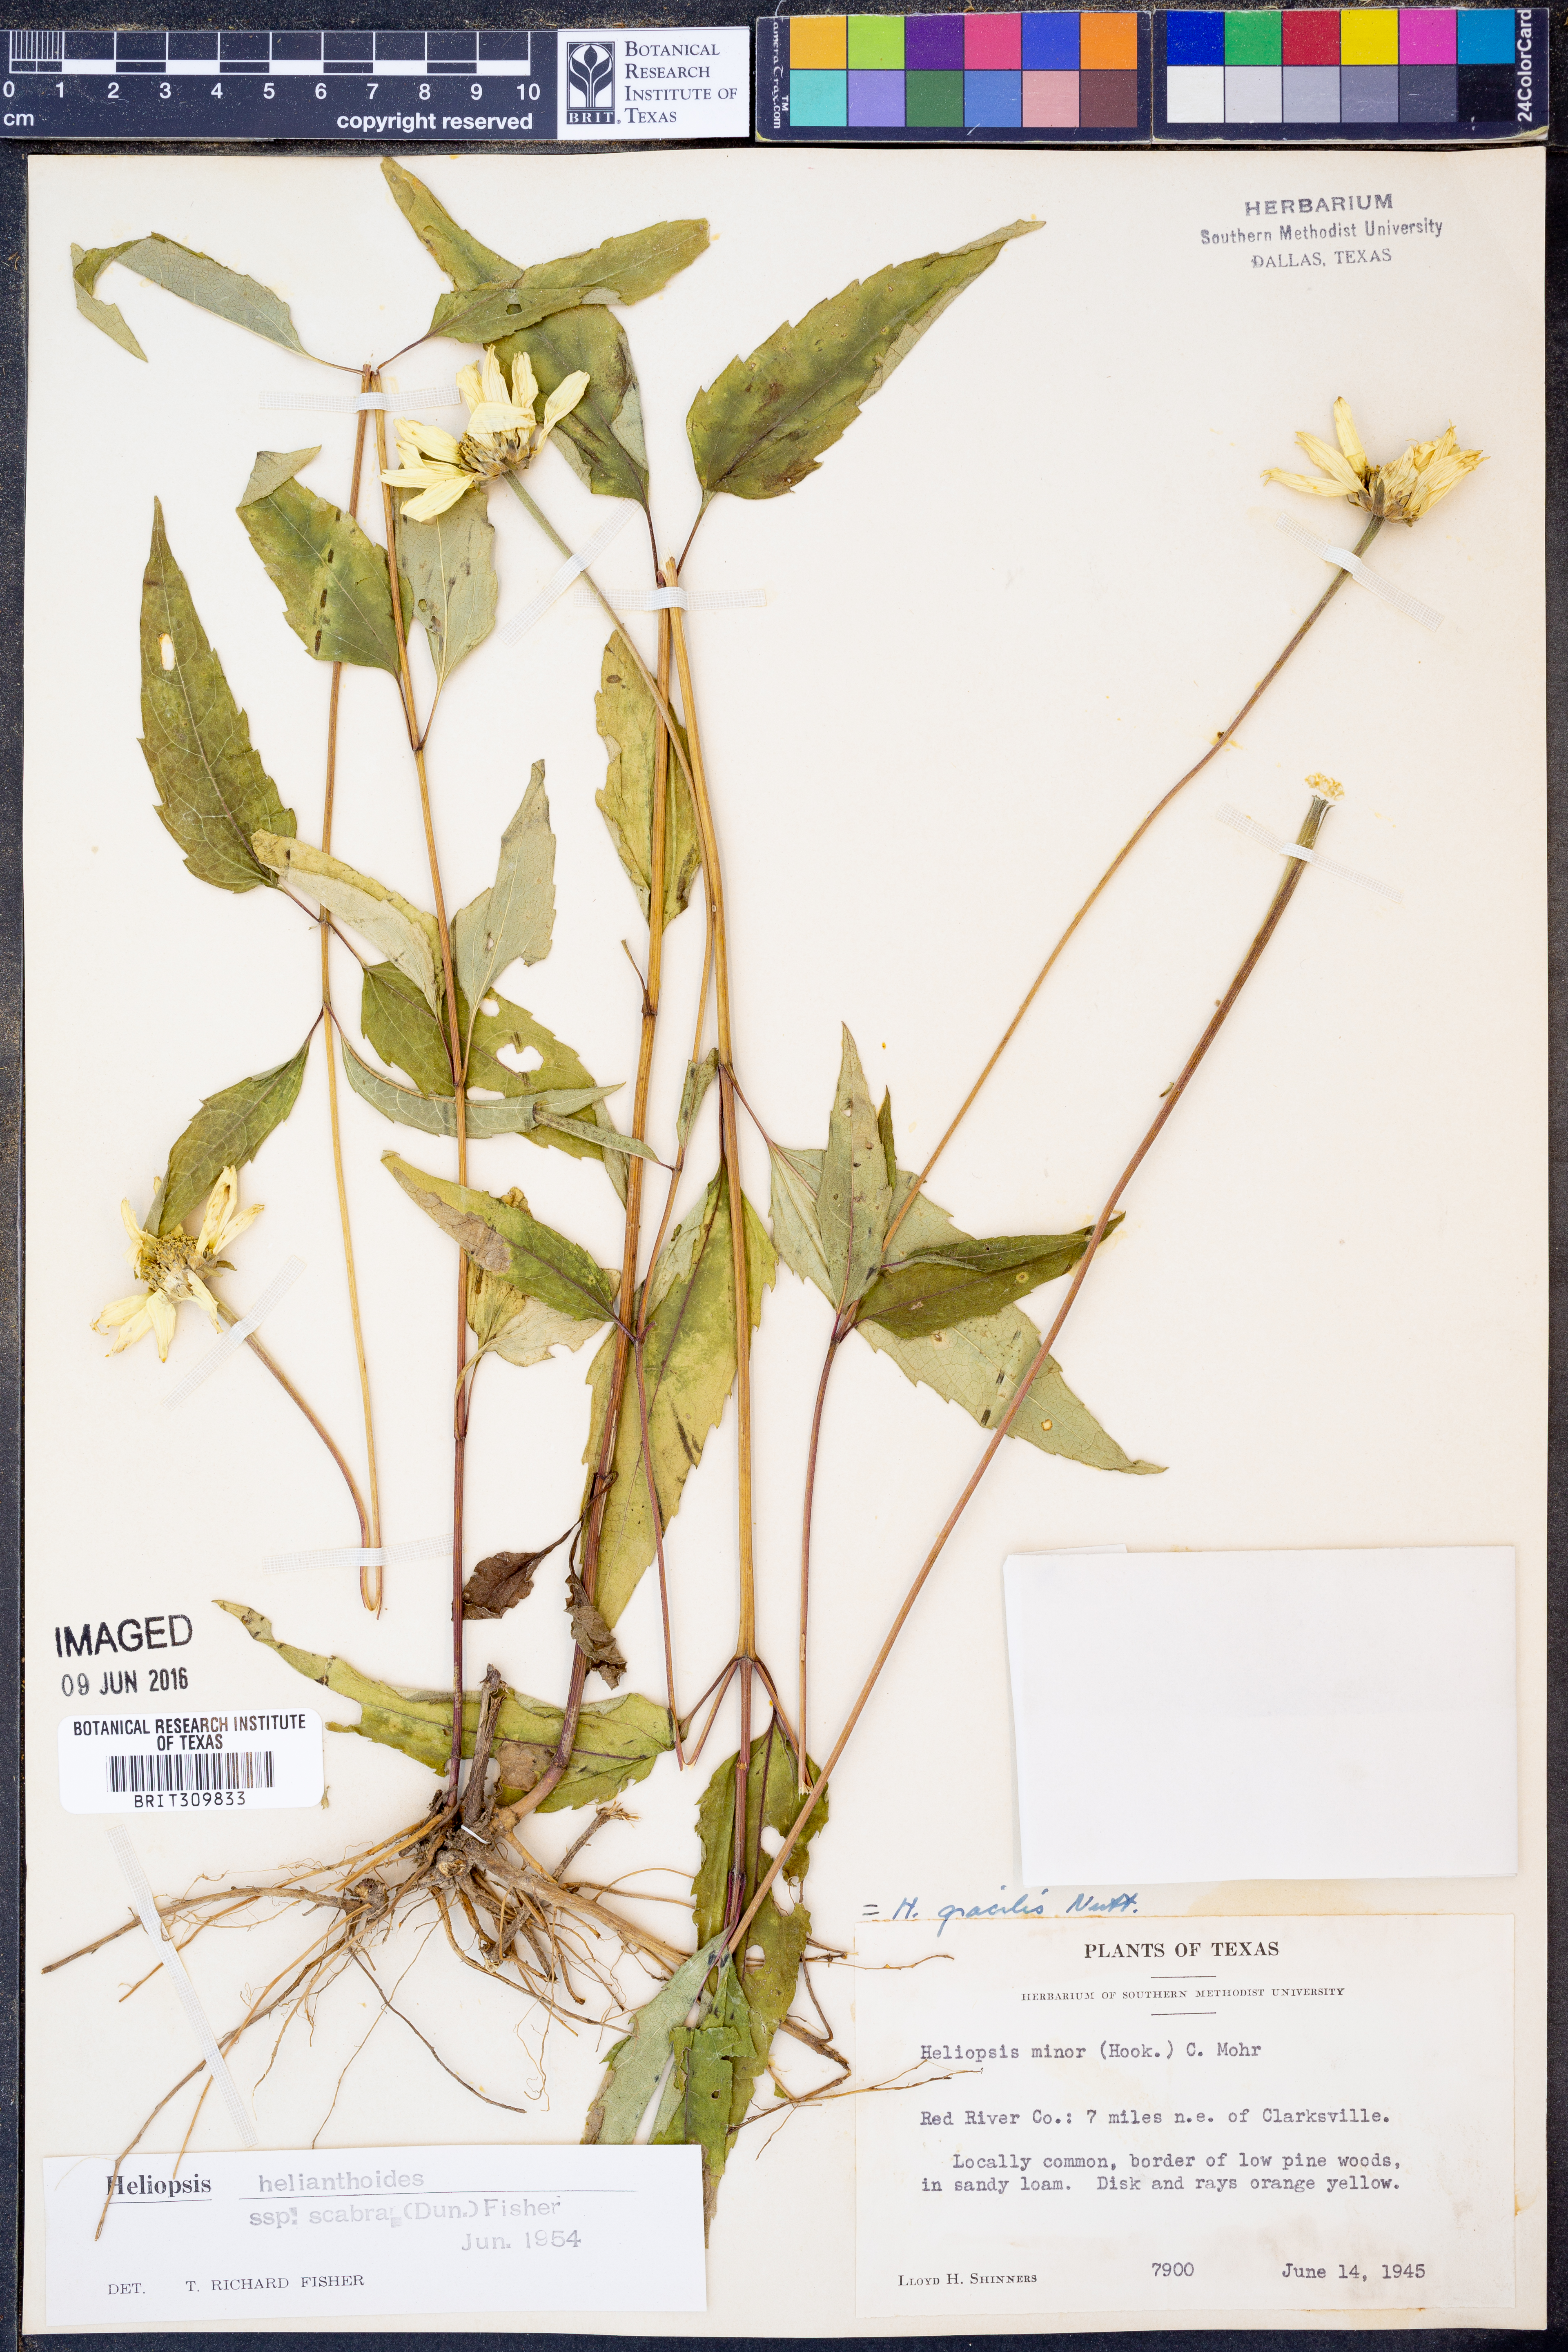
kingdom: Plantae
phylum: Tracheophyta
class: Magnoliopsida
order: Asterales
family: Asteraceae
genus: Heliopsis
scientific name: Heliopsis helianthoides
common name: False sunflower
